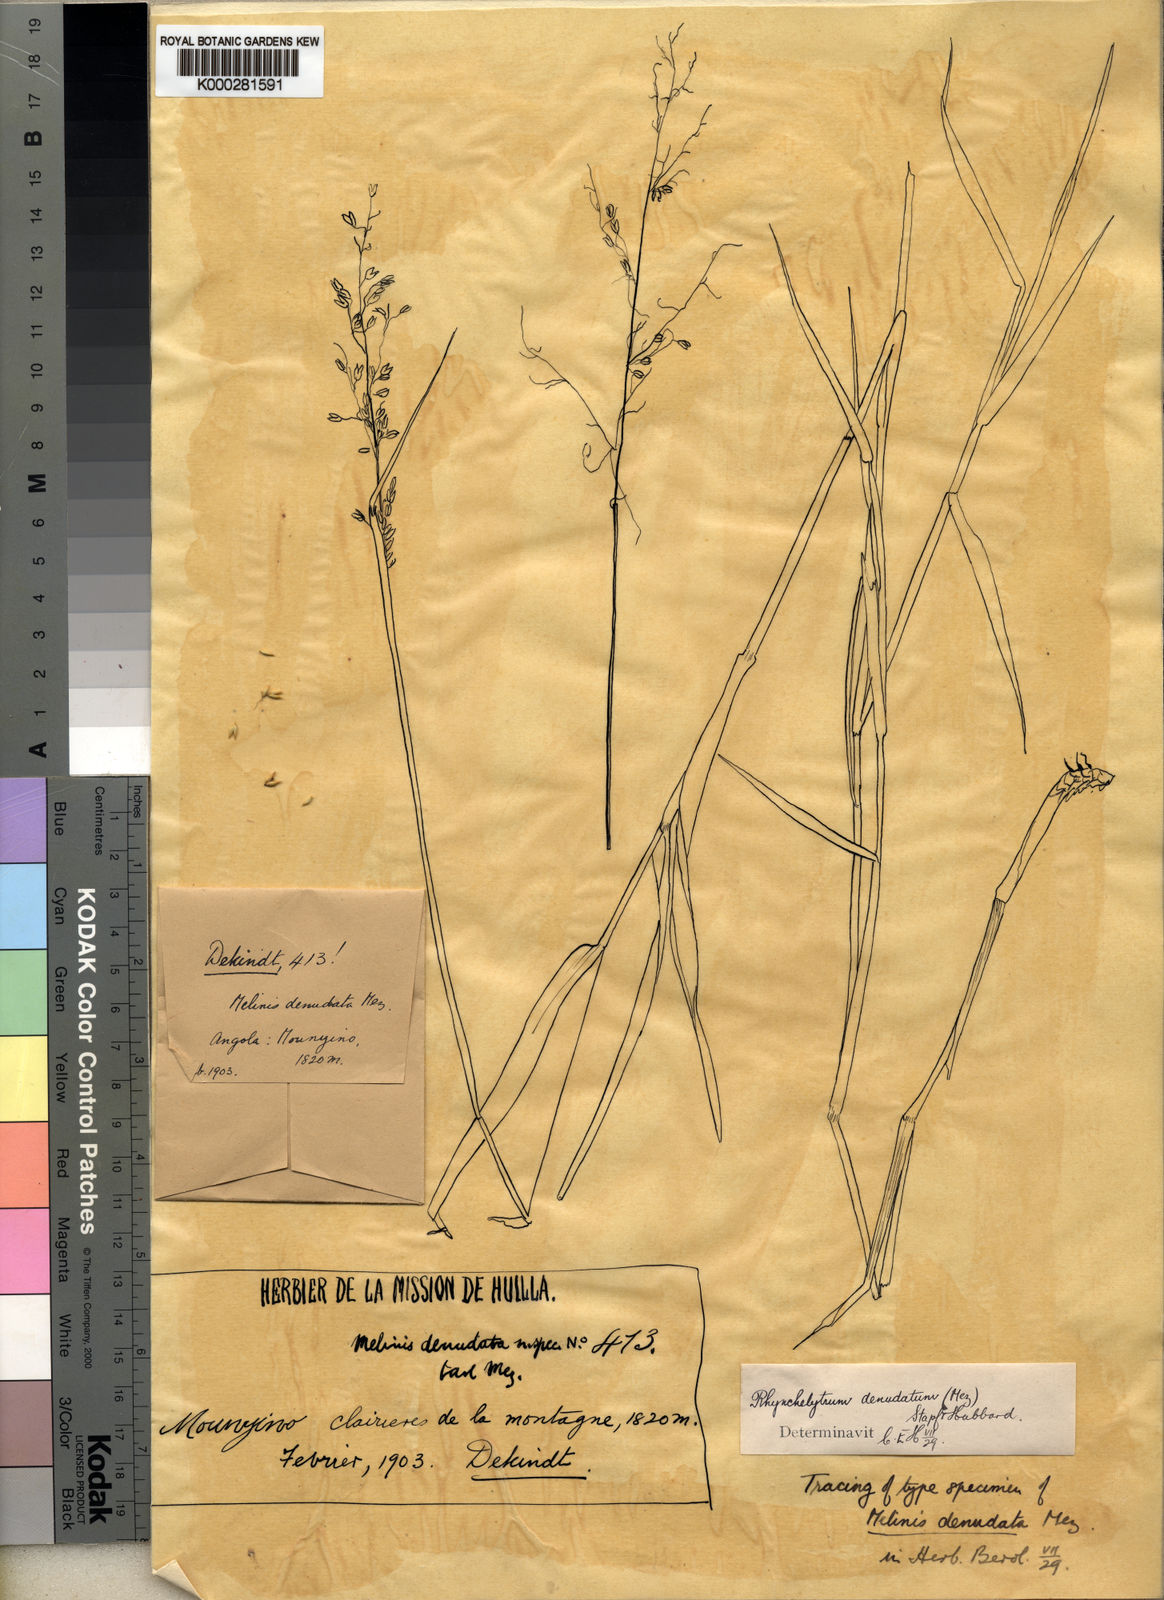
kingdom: Plantae
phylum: Tracheophyta
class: Liliopsida
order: Poales
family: Poaceae
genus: Melinis
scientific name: Melinis subglabra
